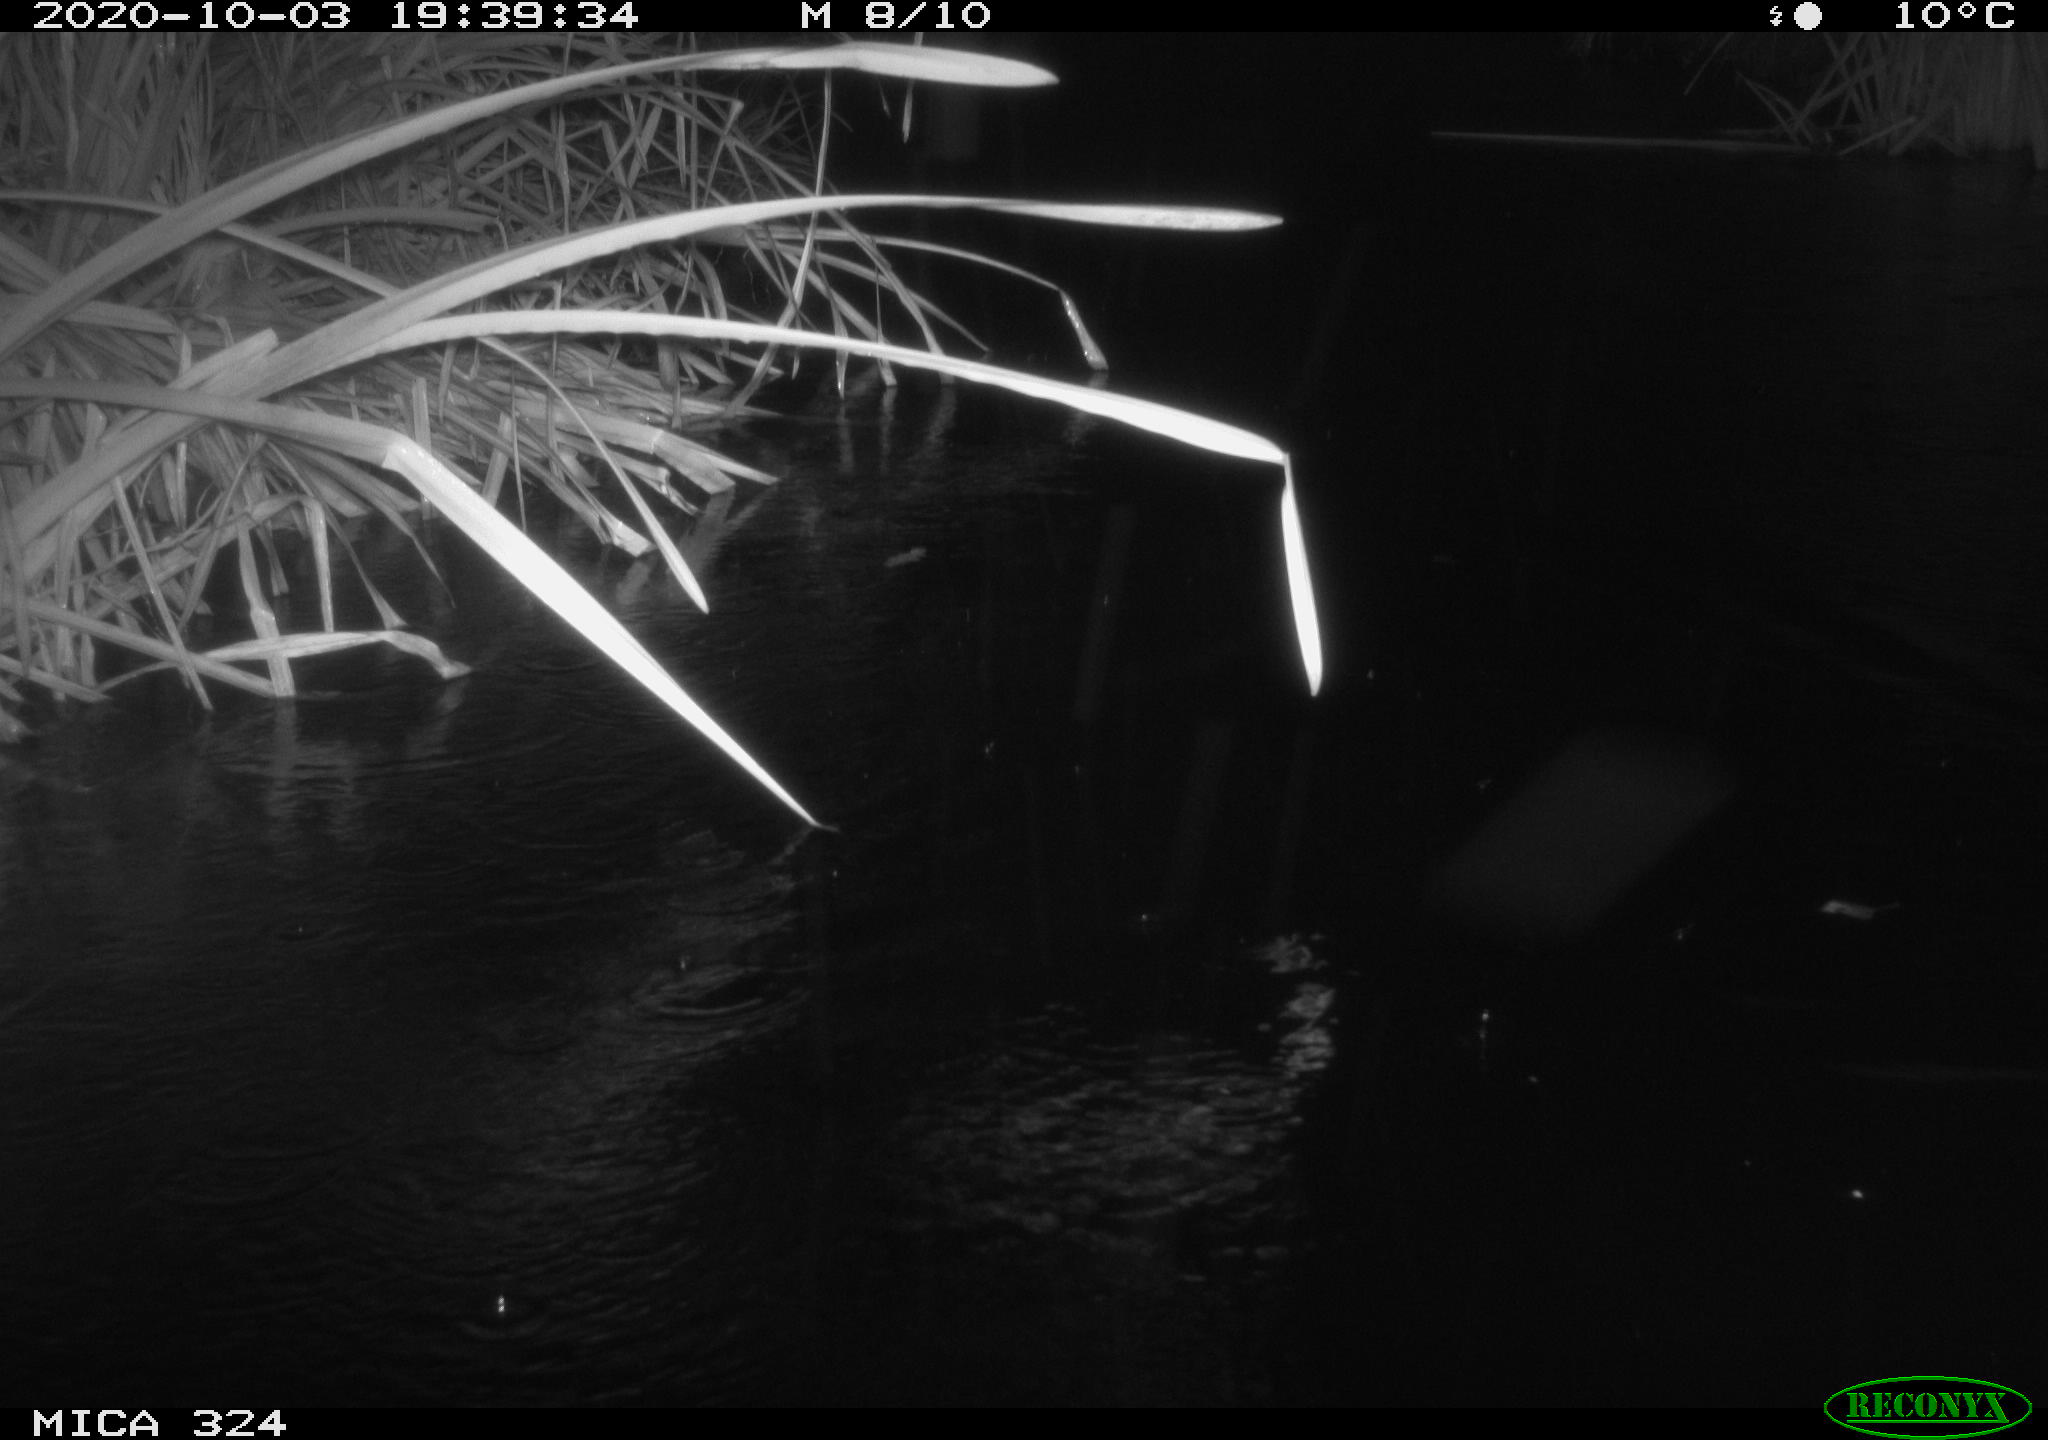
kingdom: Animalia
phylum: Chordata
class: Mammalia
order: Rodentia
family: Muridae
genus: Rattus
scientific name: Rattus norvegicus
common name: Brown rat
